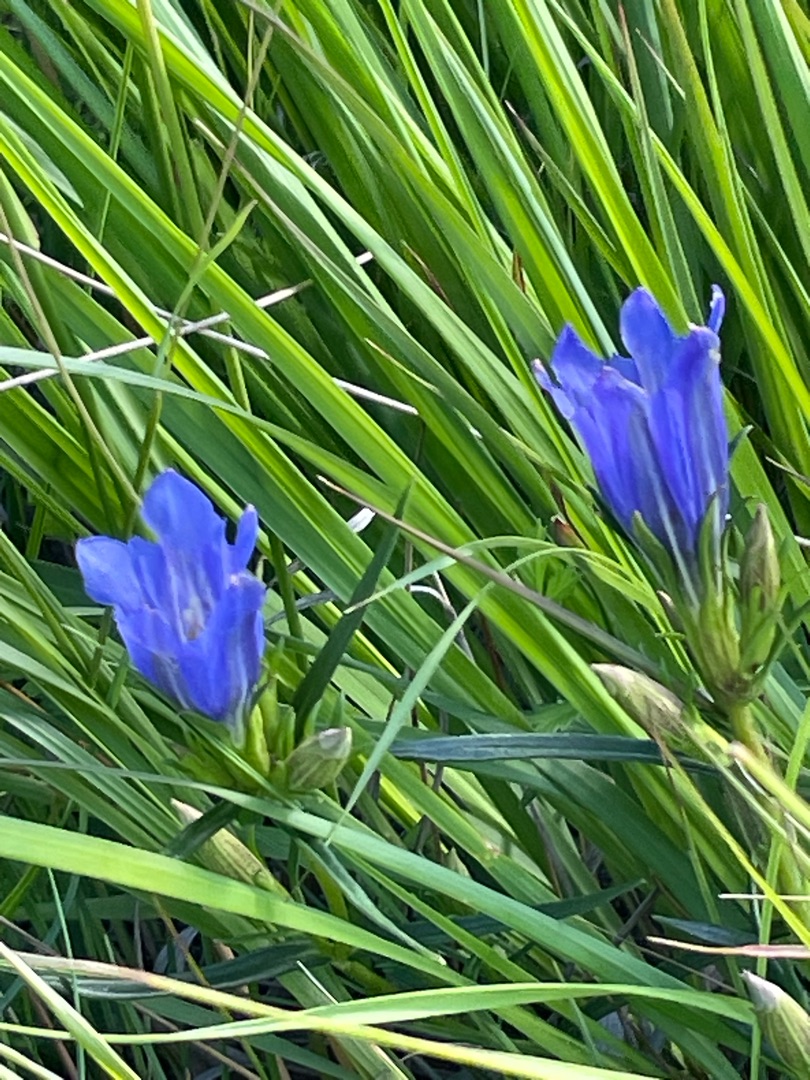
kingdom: Plantae
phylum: Tracheophyta
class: Magnoliopsida
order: Gentianales
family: Gentianaceae
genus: Gentiana
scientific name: Gentiana pneumonanthe
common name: Klokke-ensian
